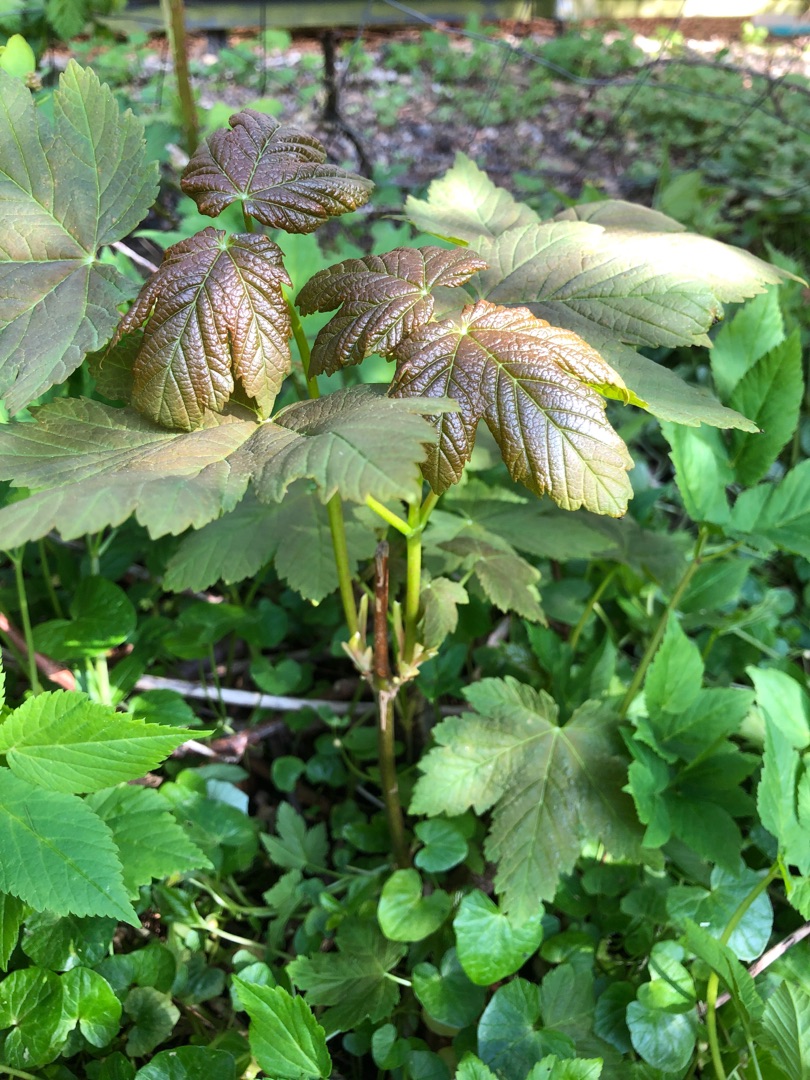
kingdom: Plantae
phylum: Tracheophyta
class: Magnoliopsida
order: Sapindales
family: Sapindaceae
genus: Acer
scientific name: Acer pseudoplatanus
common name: Ahorn
